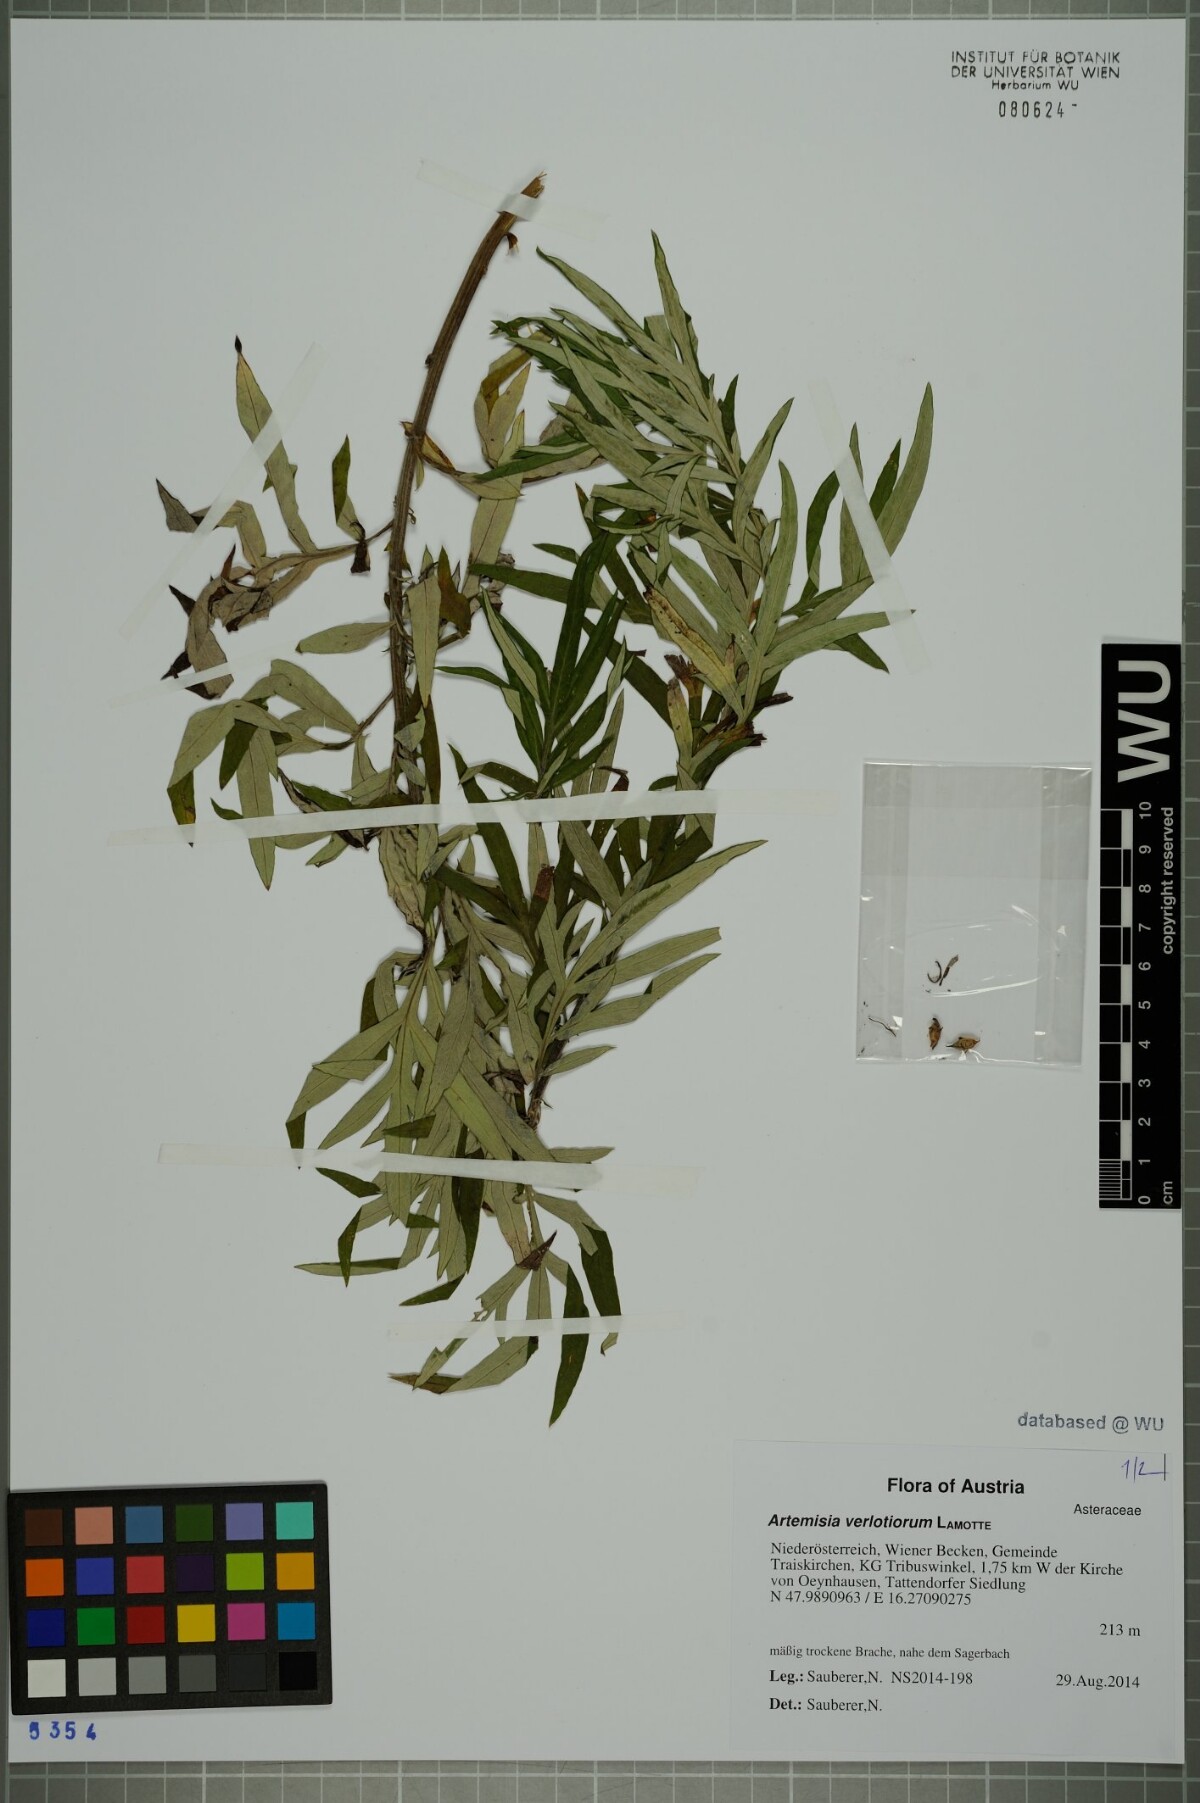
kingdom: Plantae
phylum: Tracheophyta
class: Magnoliopsida
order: Asterales
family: Asteraceae
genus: Artemisia
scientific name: Artemisia verlotiorum
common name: Chinese mugwort
